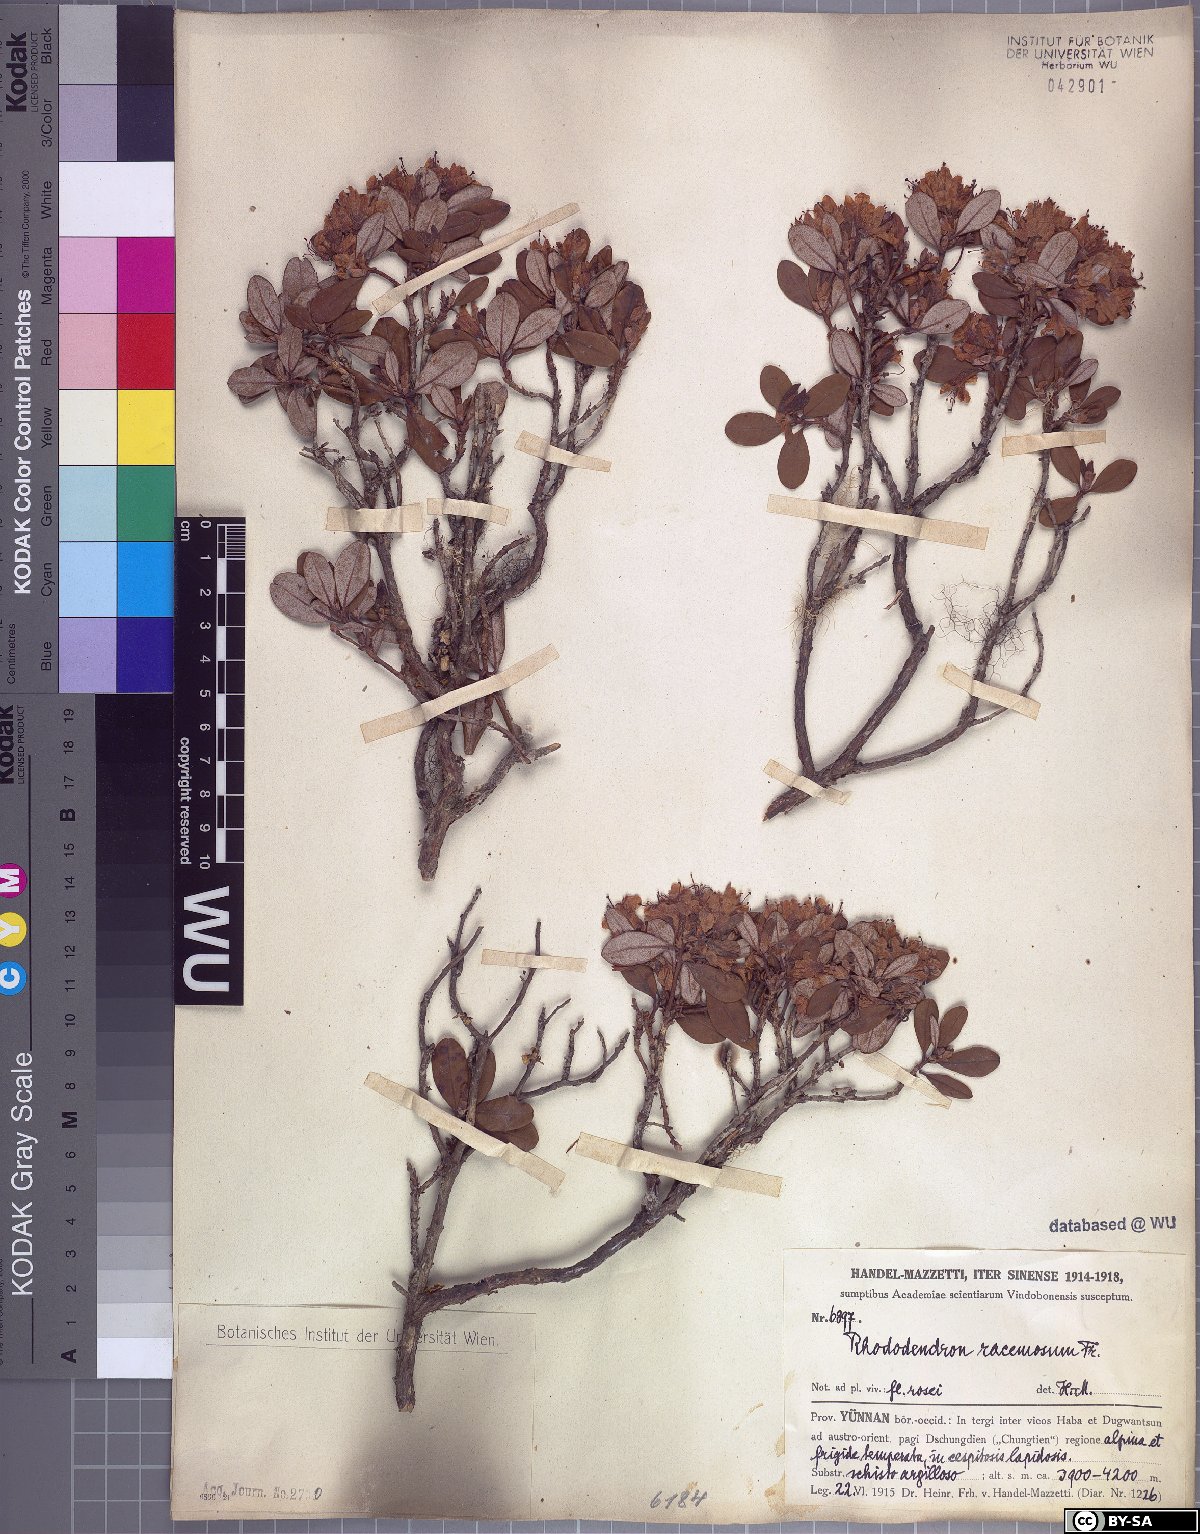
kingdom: Plantae
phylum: Tracheophyta
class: Magnoliopsida
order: Ericales
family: Ericaceae
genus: Rhododendron
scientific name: Rhododendron racemosum
